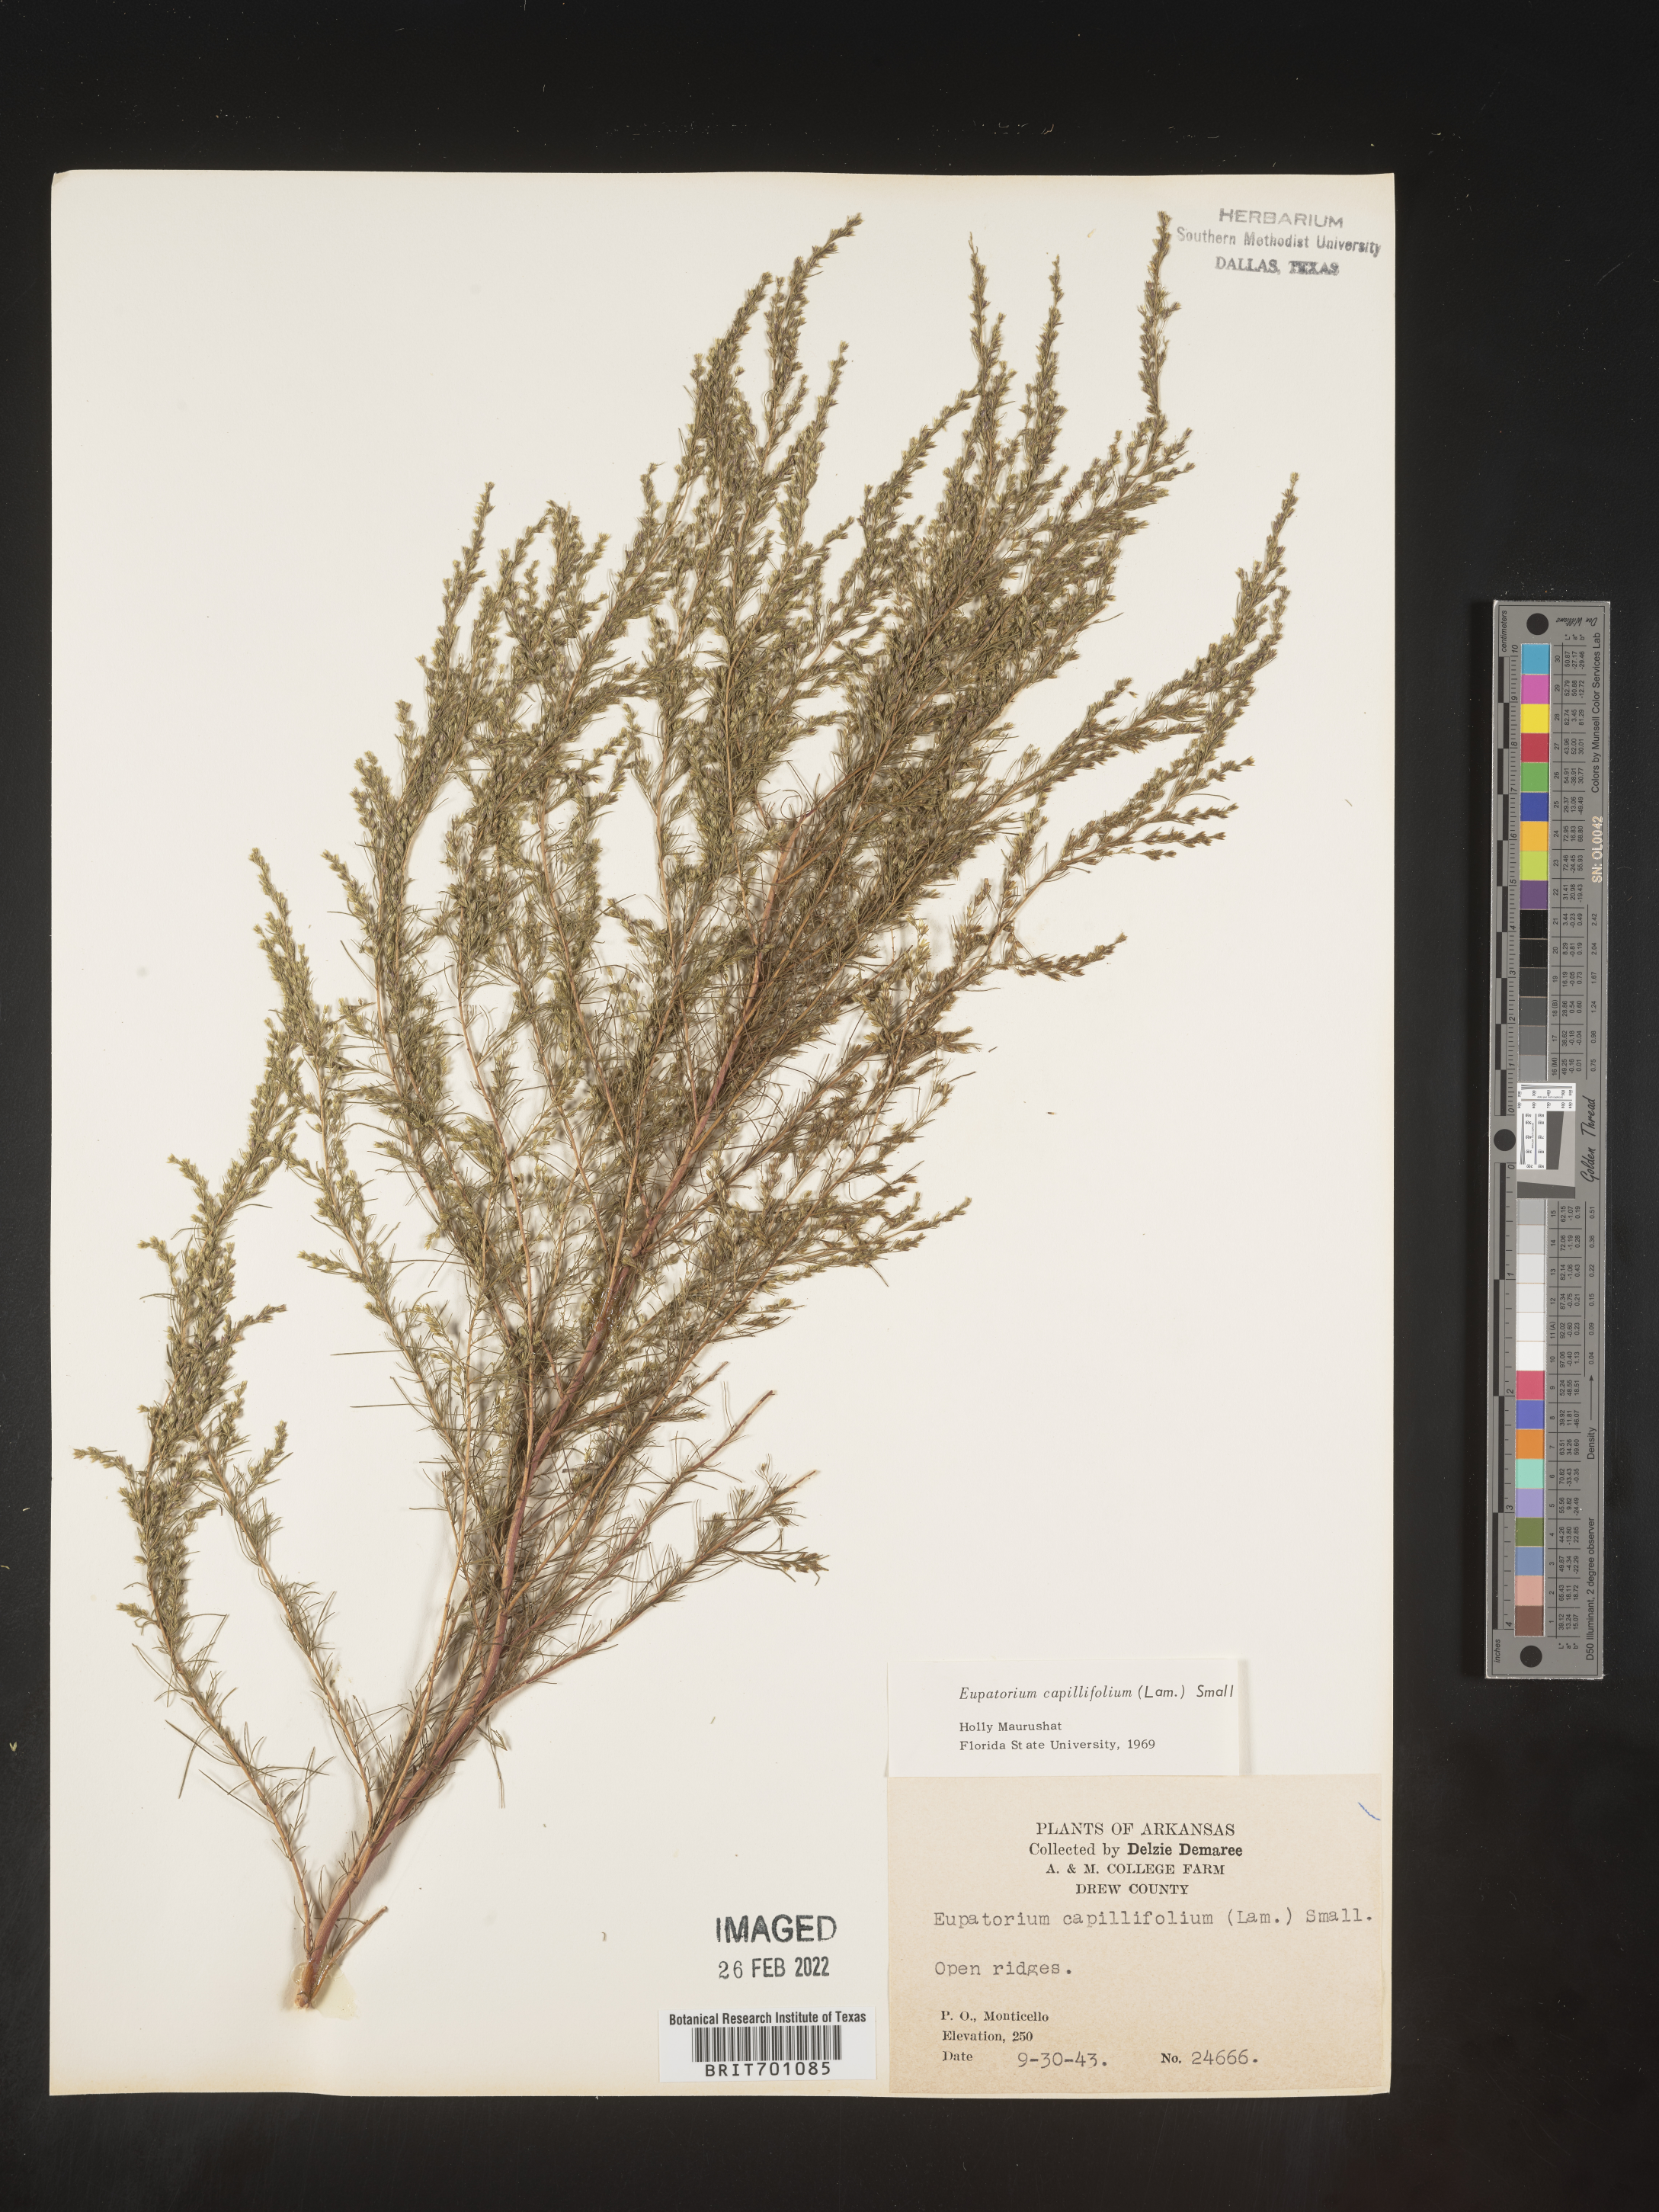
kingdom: Plantae
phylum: Tracheophyta
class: Magnoliopsida
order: Asterales
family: Asteraceae
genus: Eupatorium
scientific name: Eupatorium capillifolium
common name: Dog-fennel
